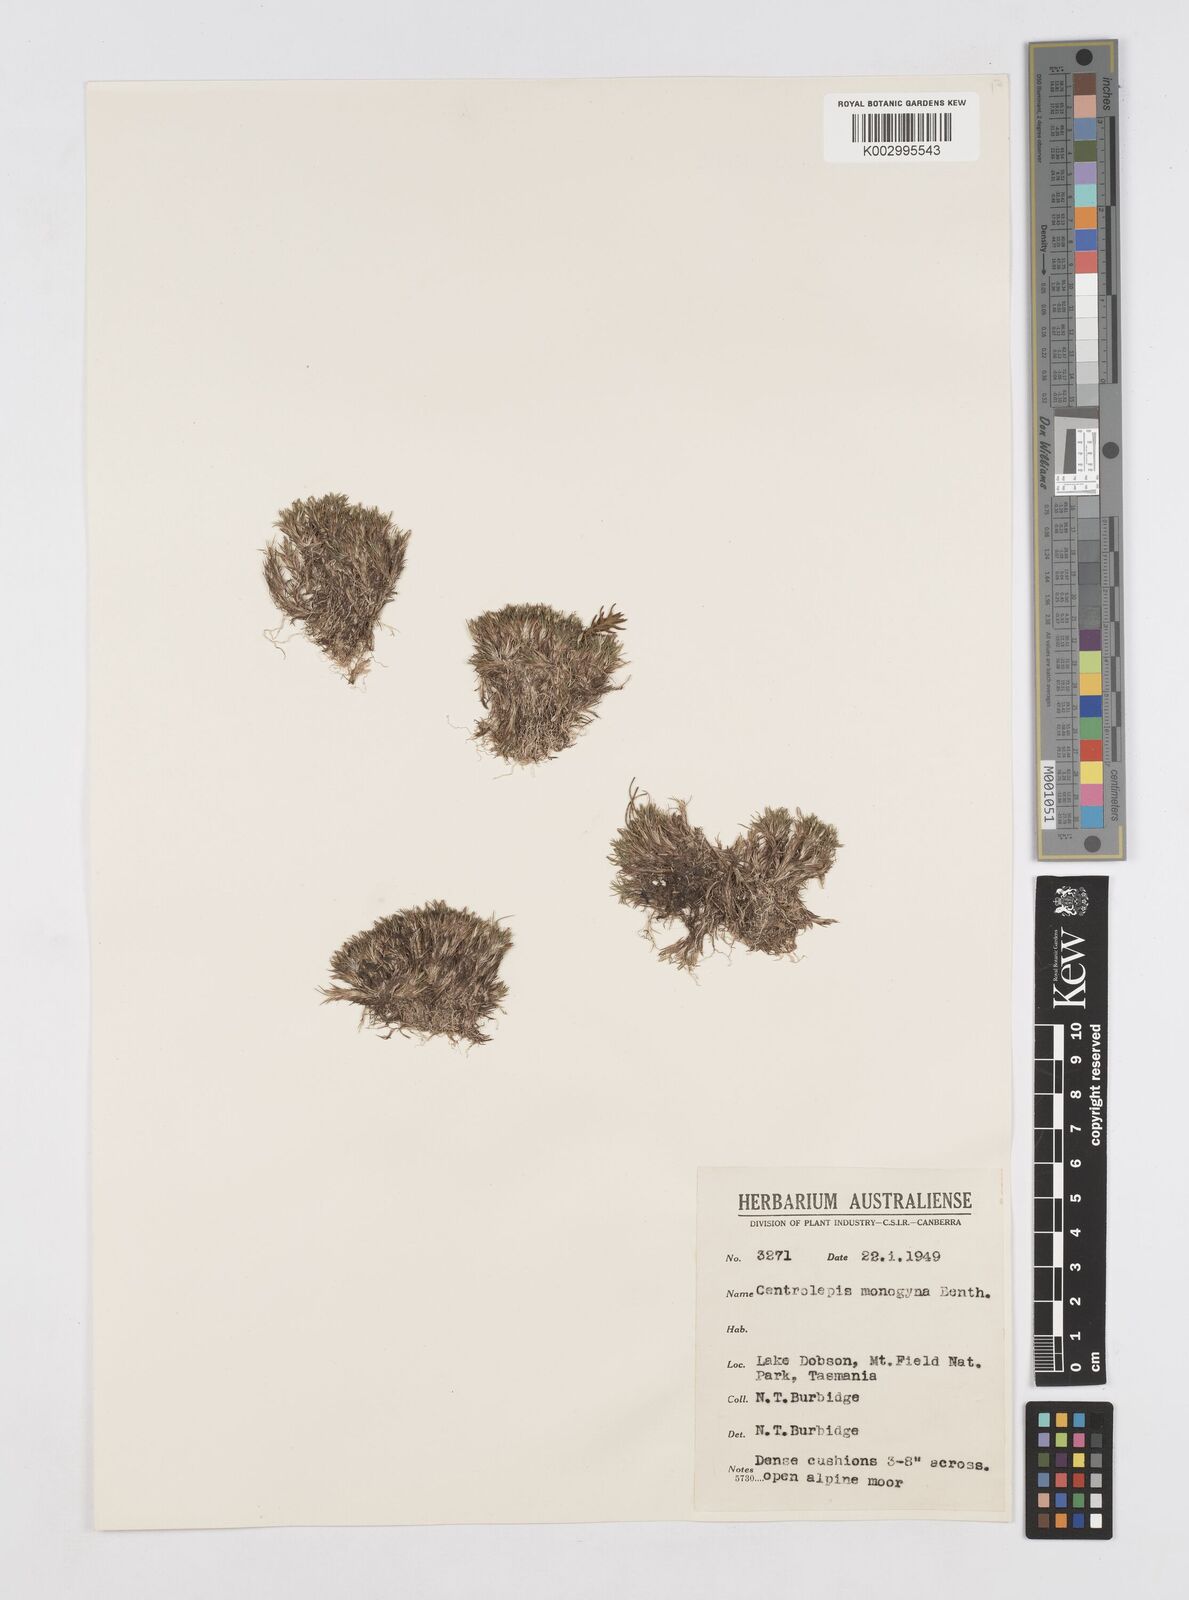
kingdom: Plantae
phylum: Tracheophyta
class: Liliopsida
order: Poales
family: Restionaceae
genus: Centrolepis
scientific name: Centrolepis monogyna
